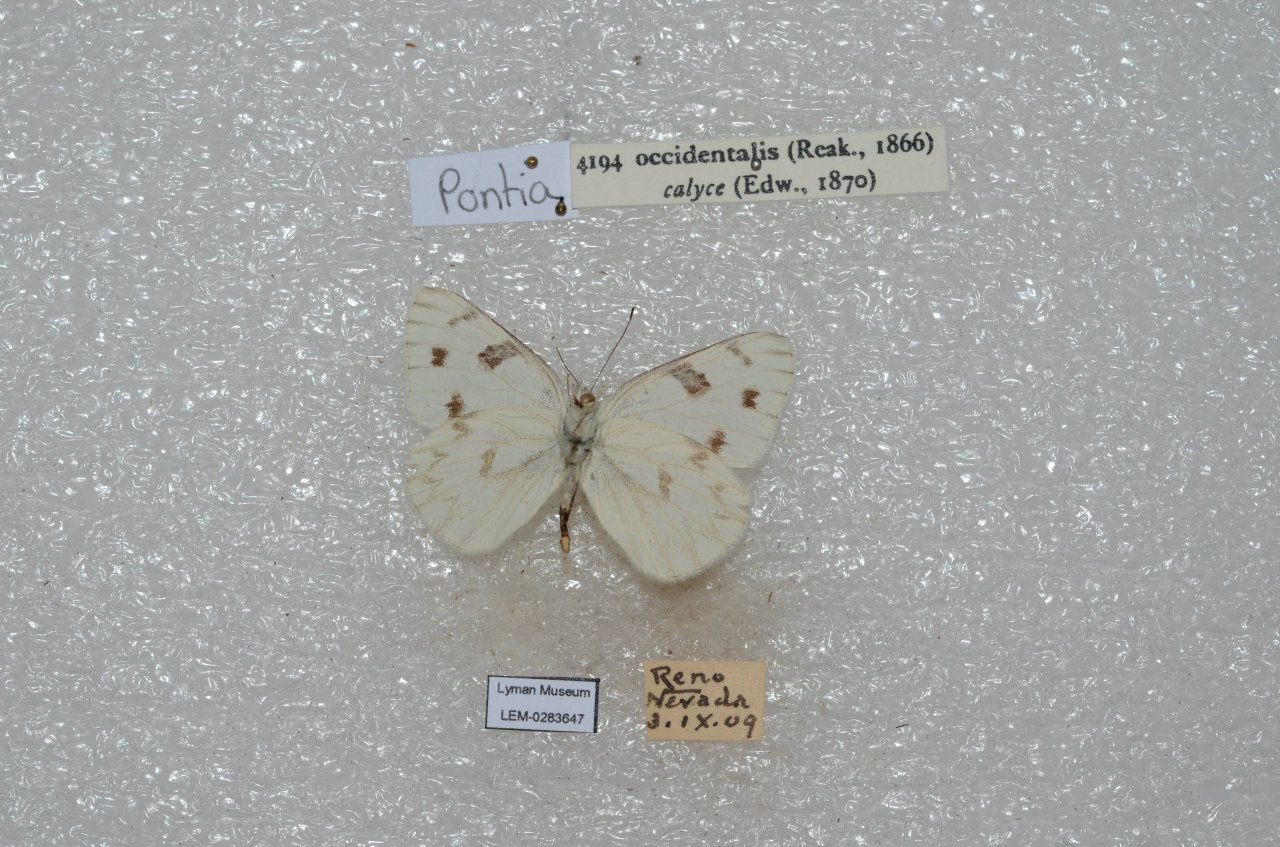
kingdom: Animalia
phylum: Arthropoda
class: Insecta
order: Lepidoptera
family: Pieridae
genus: Pontia
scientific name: Pontia occidentalis
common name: Western White
